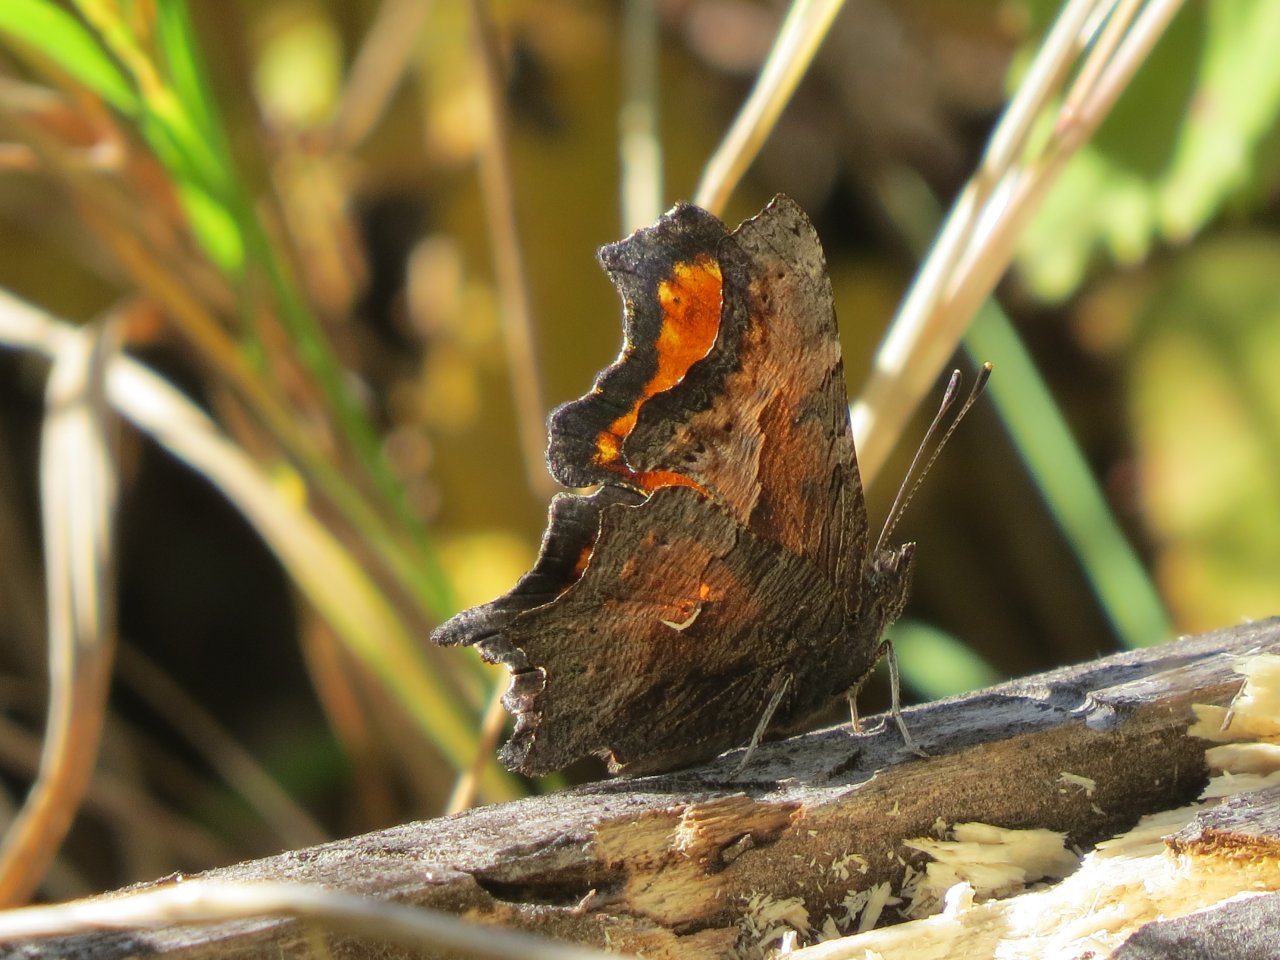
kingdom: Animalia
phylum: Arthropoda
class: Insecta
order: Lepidoptera
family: Nymphalidae
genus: Polygonia
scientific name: Polygonia progne
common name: Gray Comma
